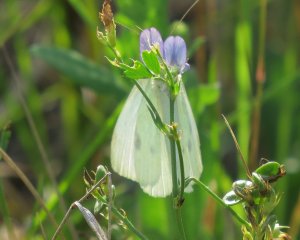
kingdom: Animalia
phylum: Arthropoda
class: Insecta
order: Lepidoptera
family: Pieridae
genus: Pieris
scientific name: Pieris rapae
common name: Cabbage White
